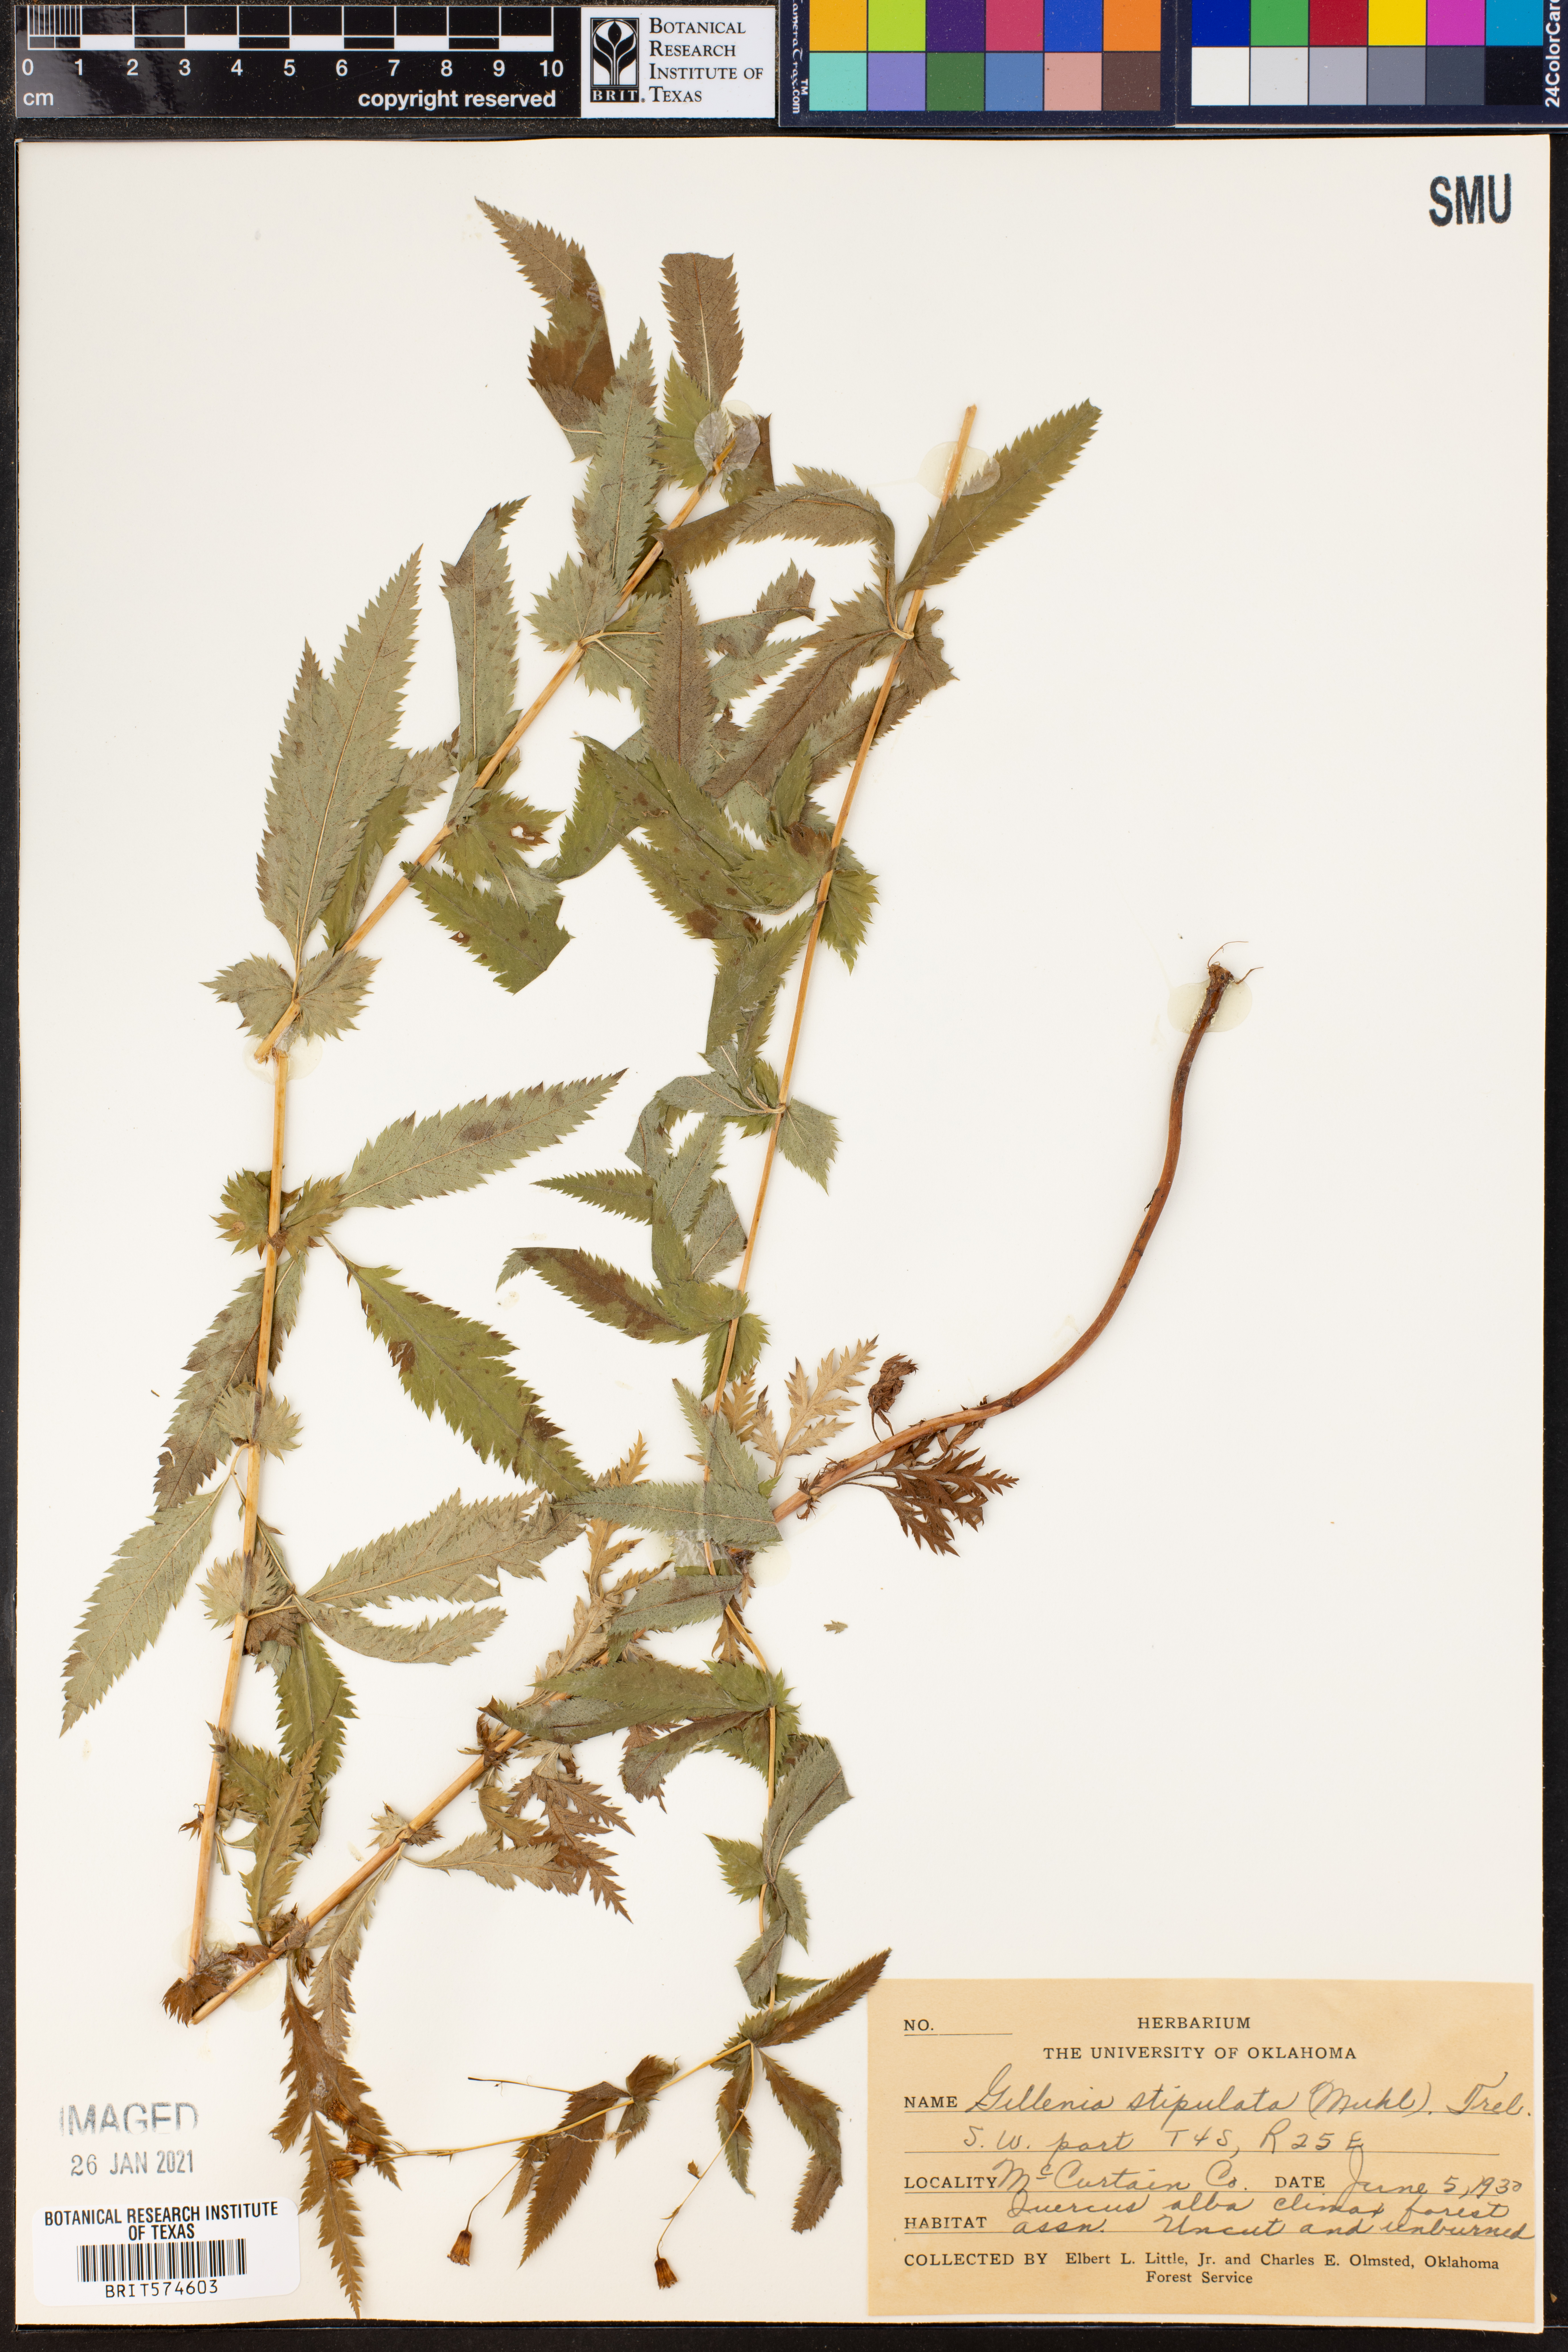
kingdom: Plantae
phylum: Tracheophyta
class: Magnoliopsida
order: Rosales
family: Rosaceae
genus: Gillenia
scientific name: Gillenia stipulata
